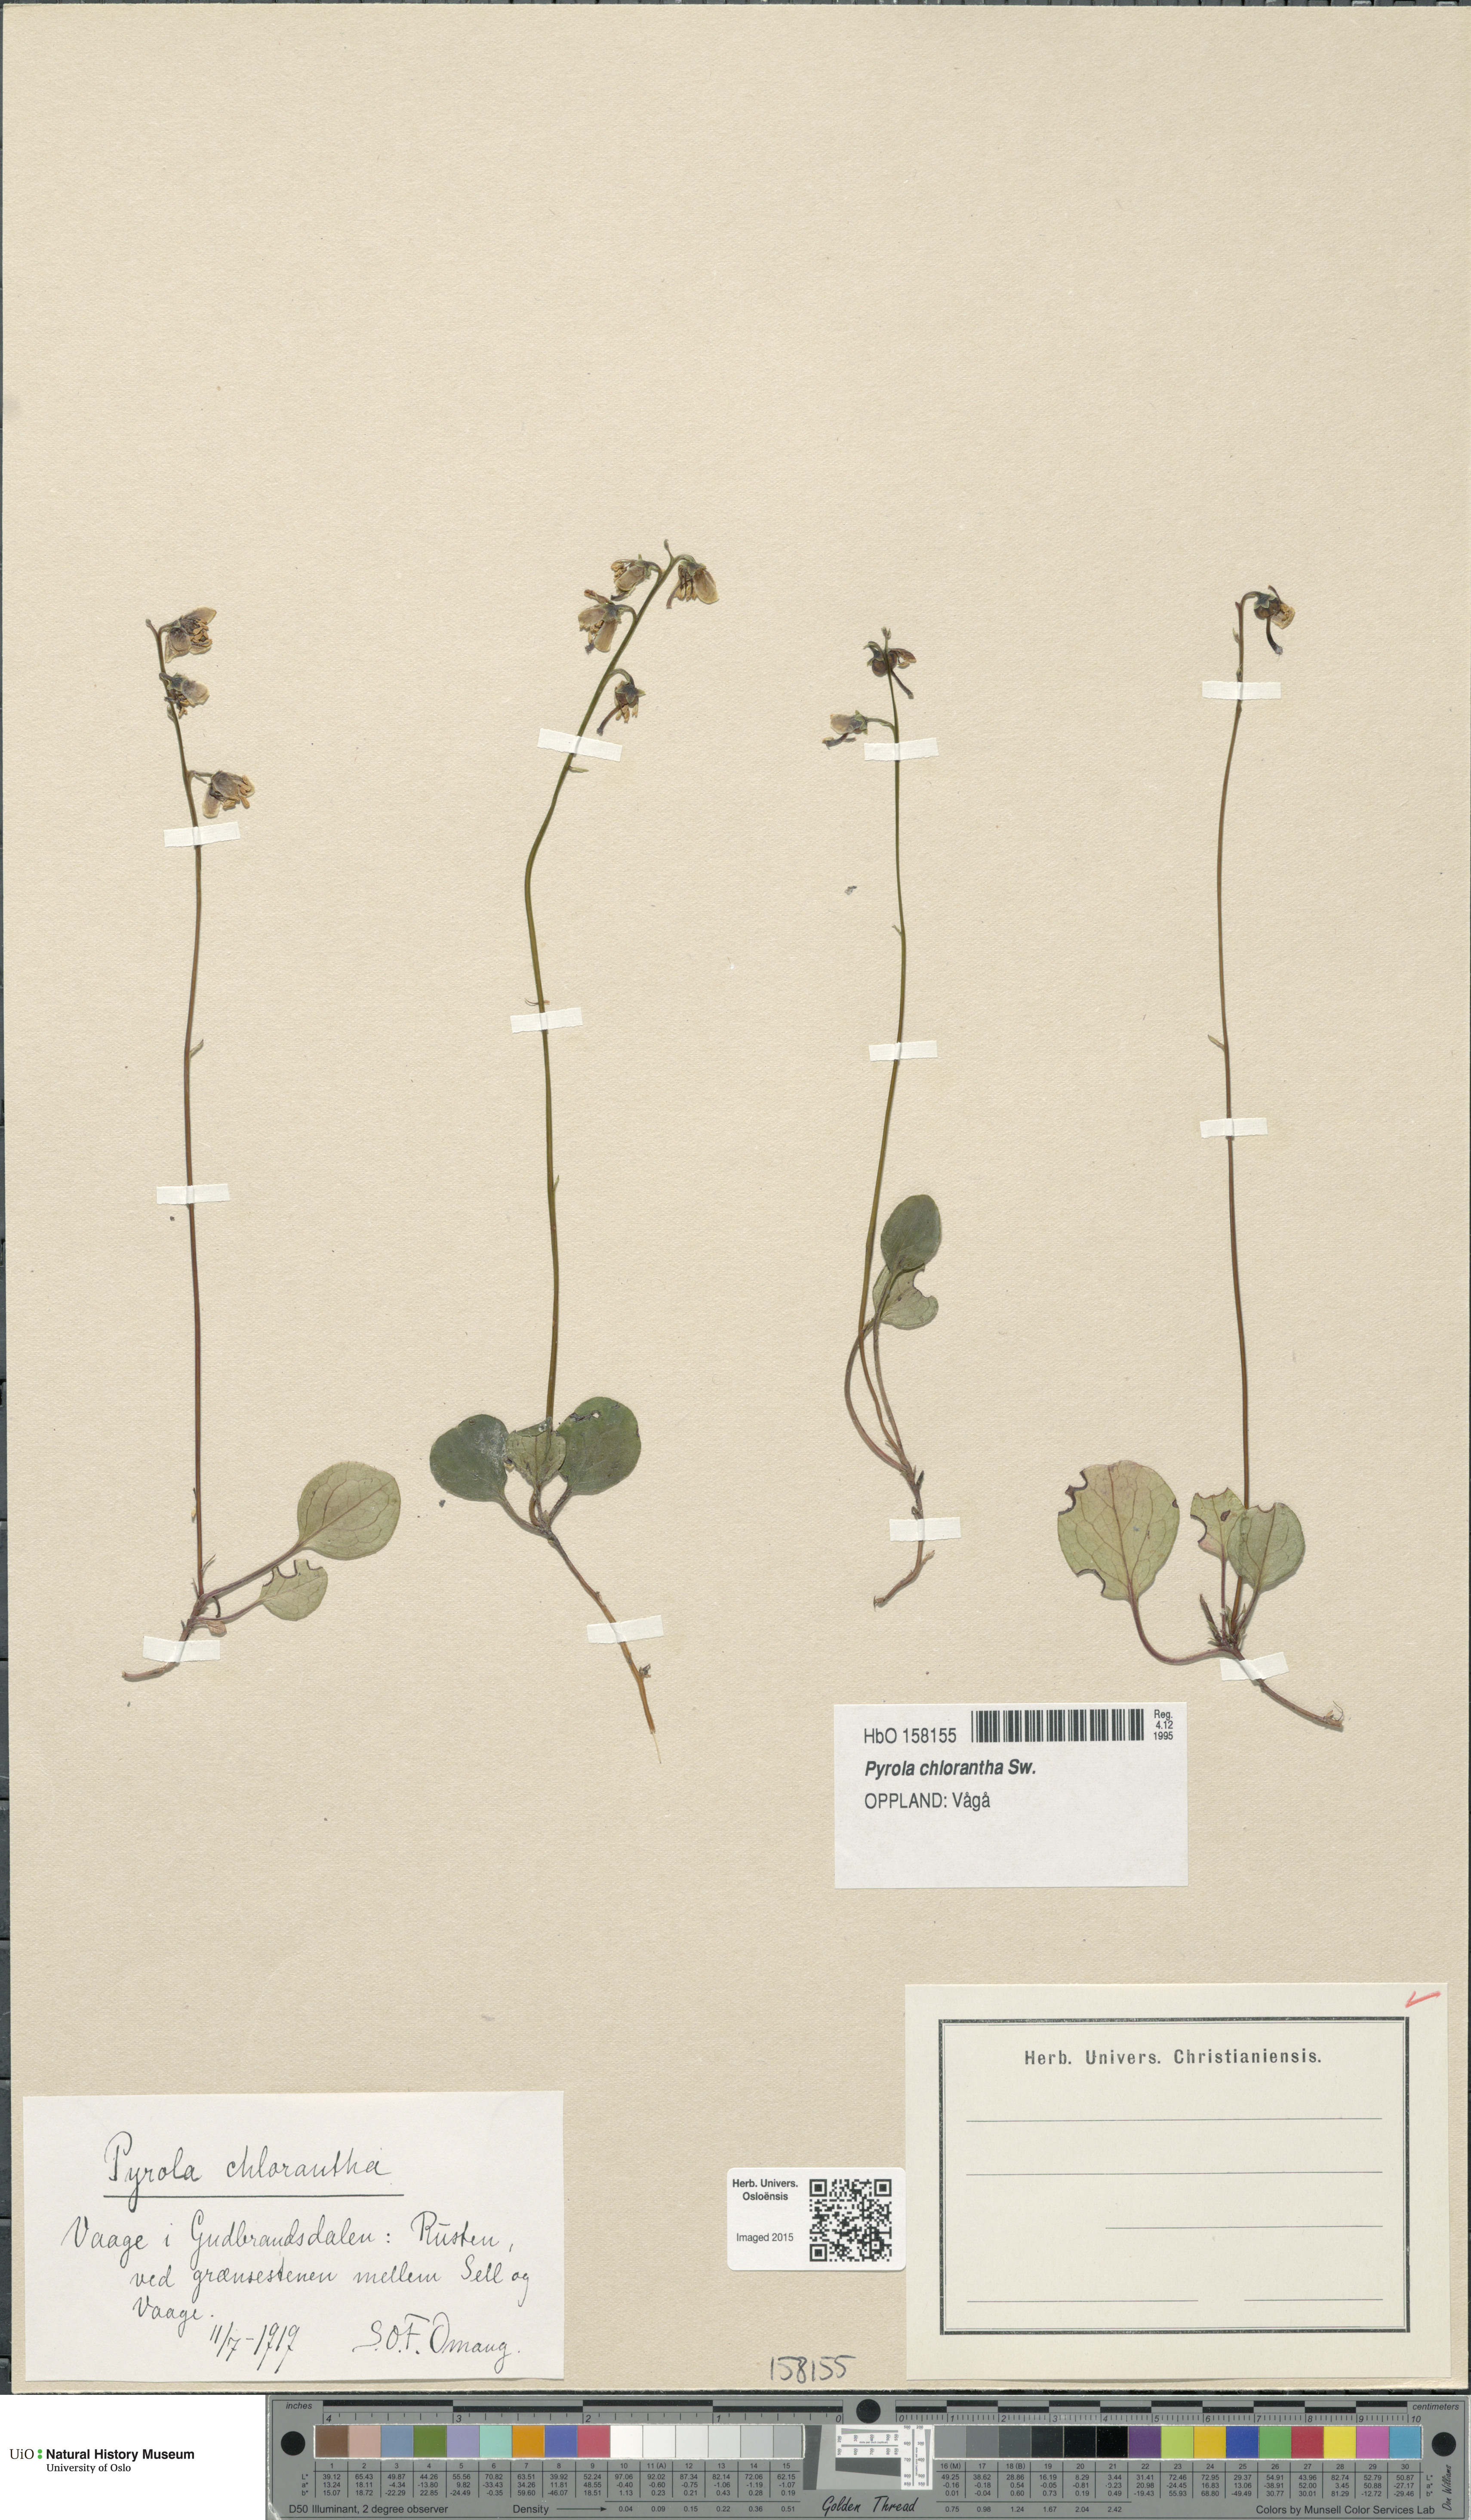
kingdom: Plantae
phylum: Tracheophyta
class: Magnoliopsida
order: Ericales
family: Ericaceae
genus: Pyrola
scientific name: Pyrola chlorantha
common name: Green wintergreen
